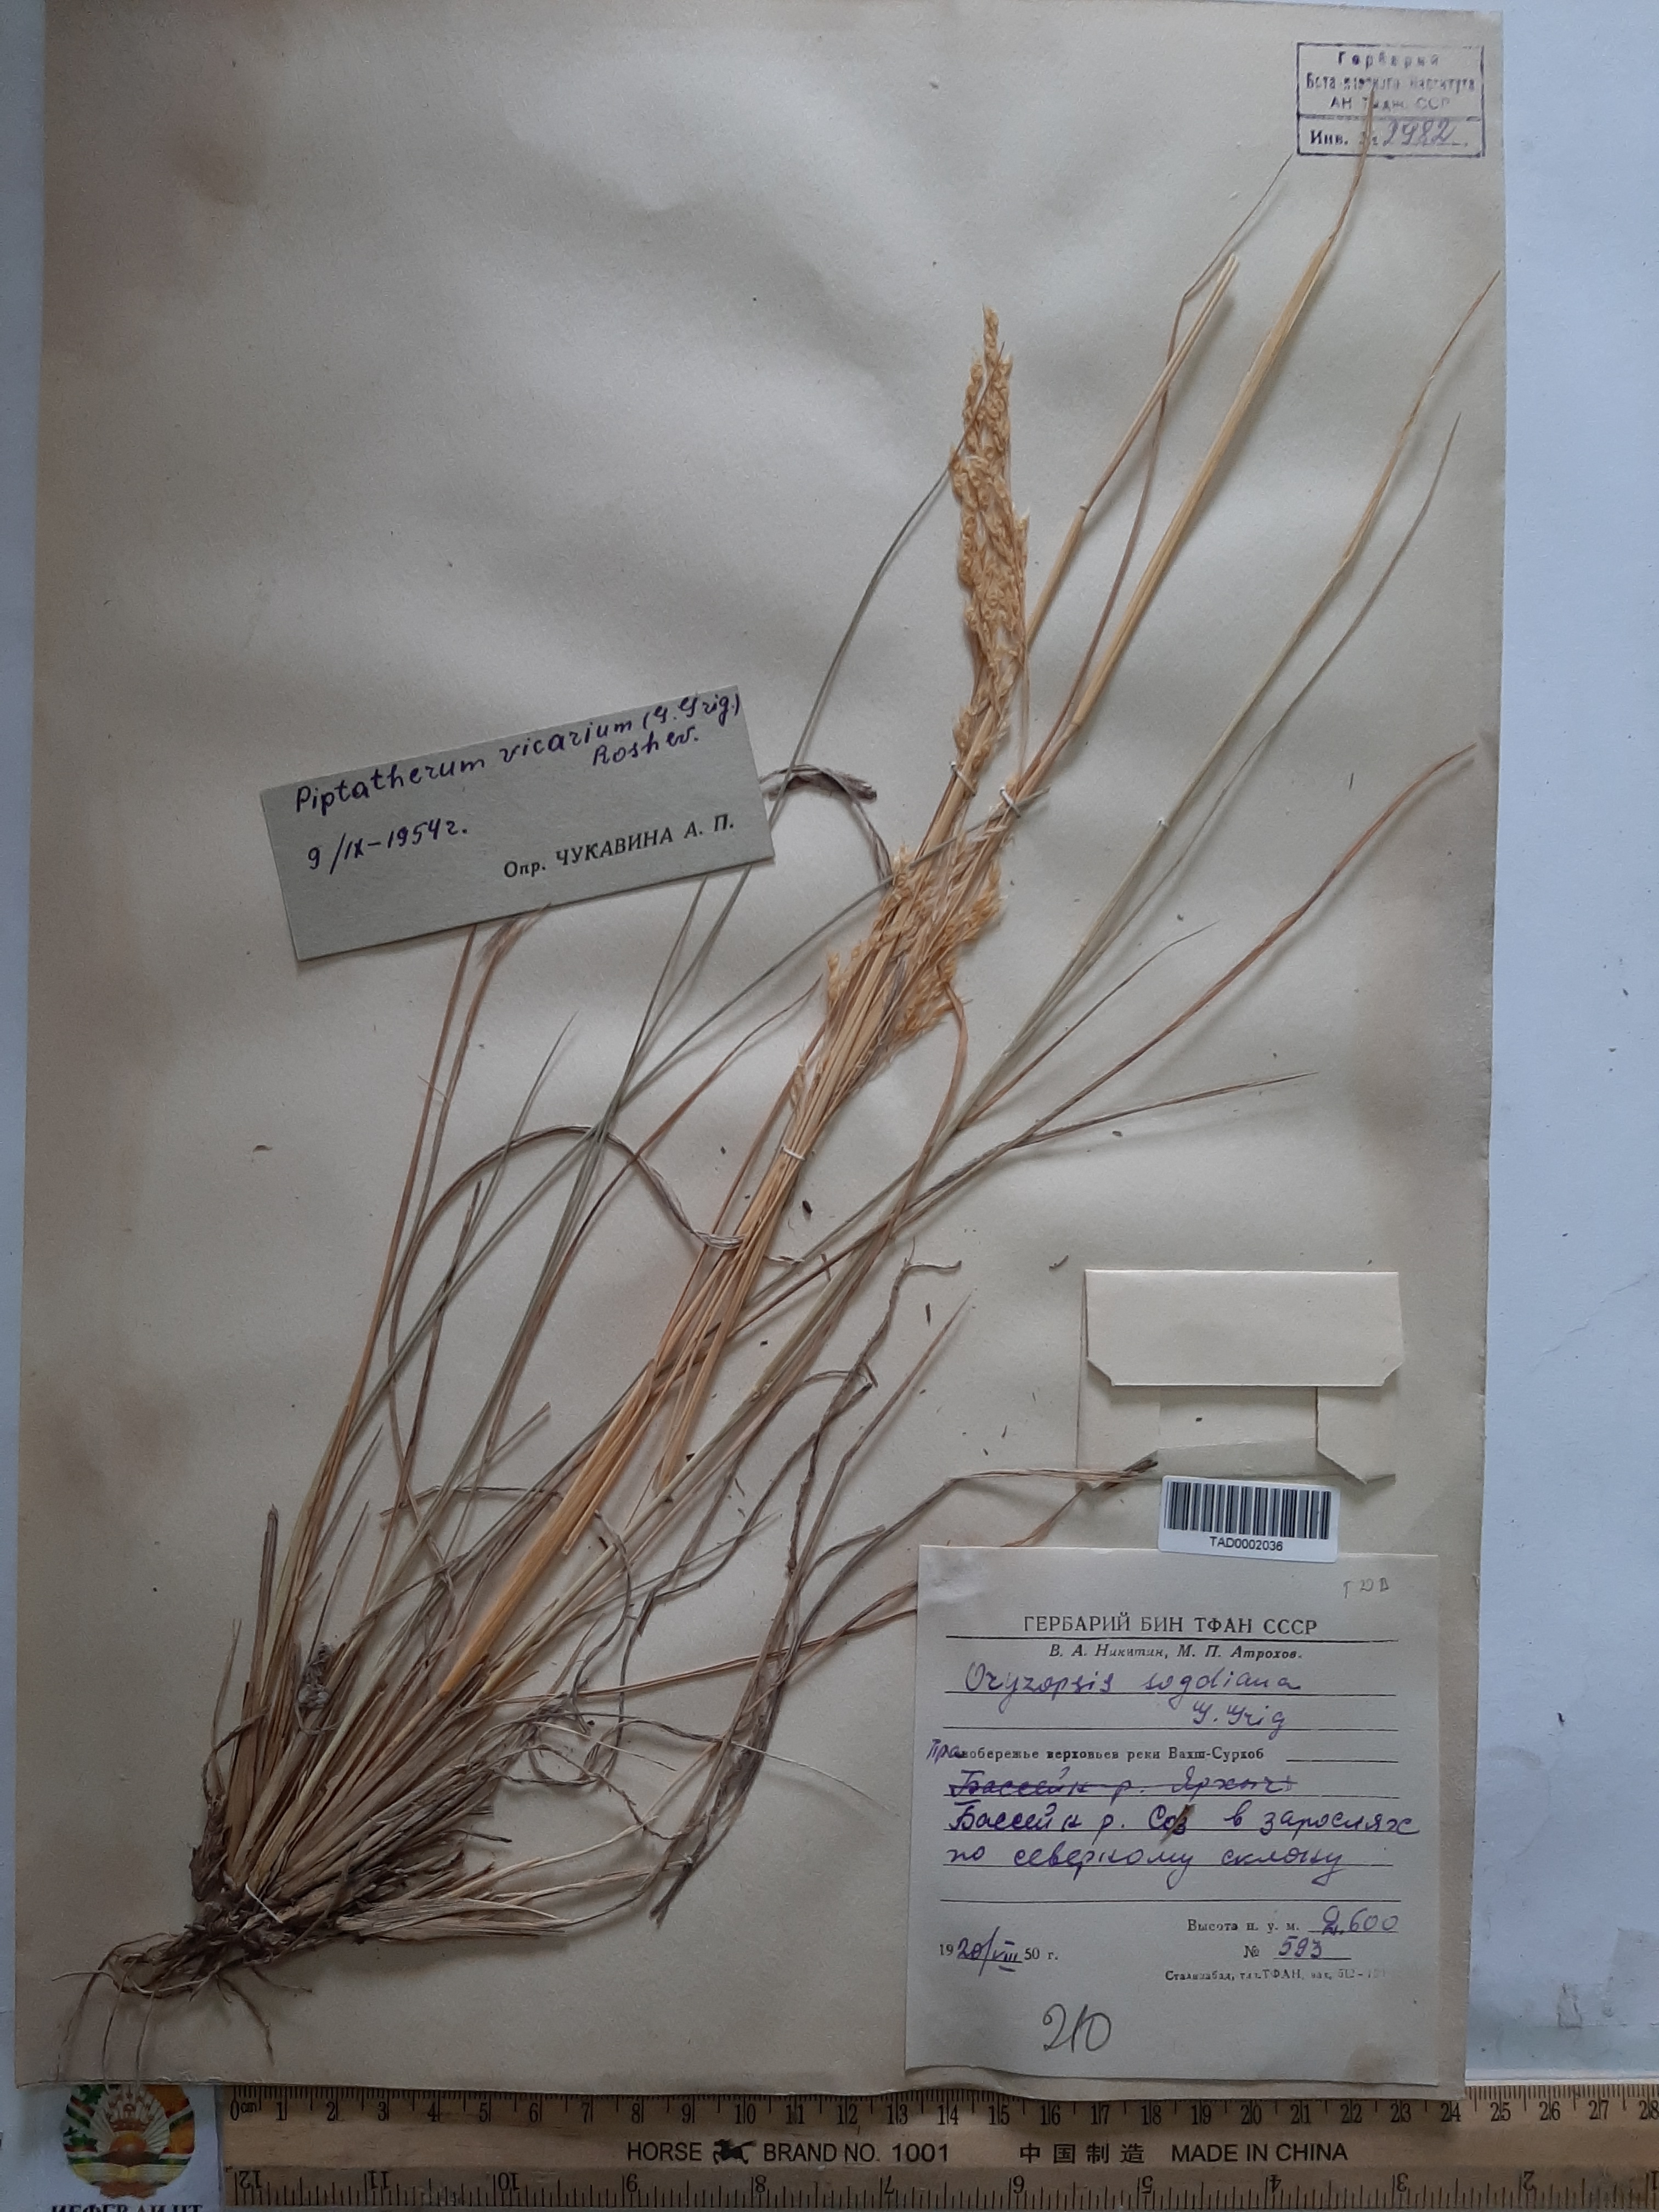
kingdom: Plantae
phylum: Tracheophyta
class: Liliopsida
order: Poales
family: Poaceae
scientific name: Poaceae
